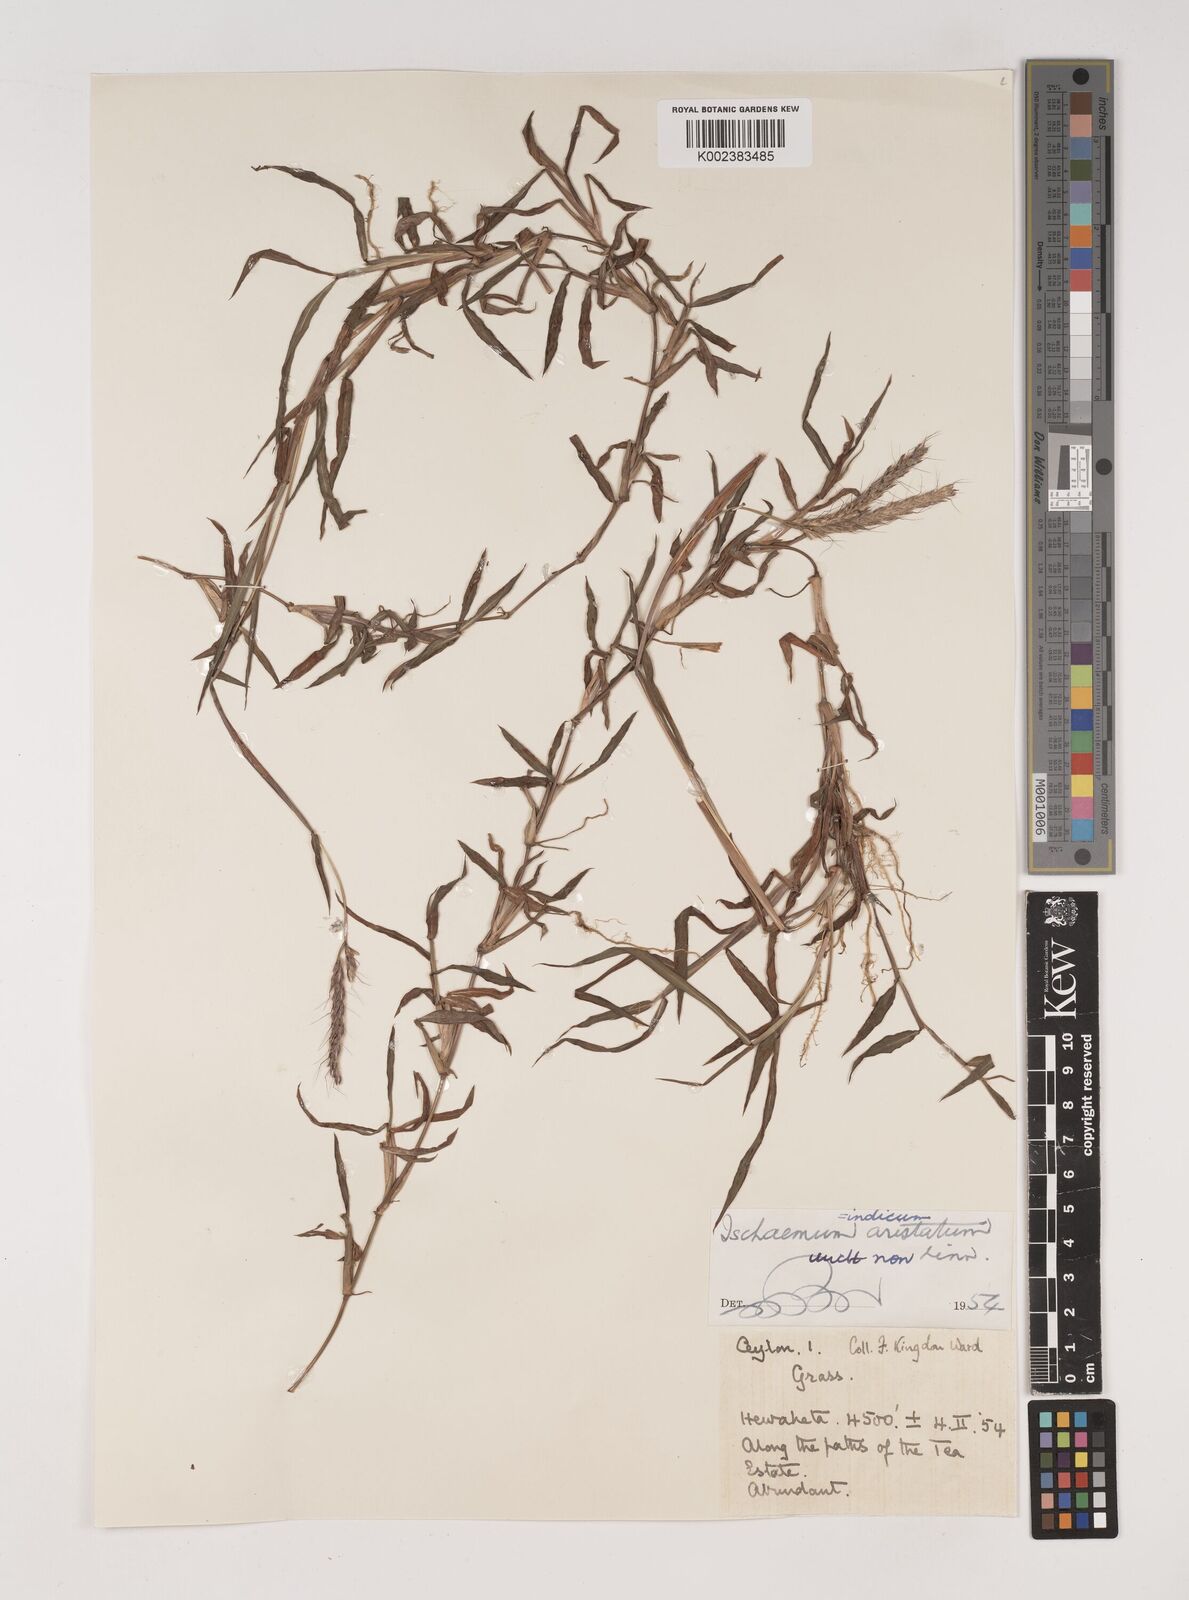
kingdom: Plantae
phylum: Tracheophyta
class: Liliopsida
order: Poales
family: Poaceae
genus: Polytrias
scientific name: Polytrias indica
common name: Indian murainagrass
